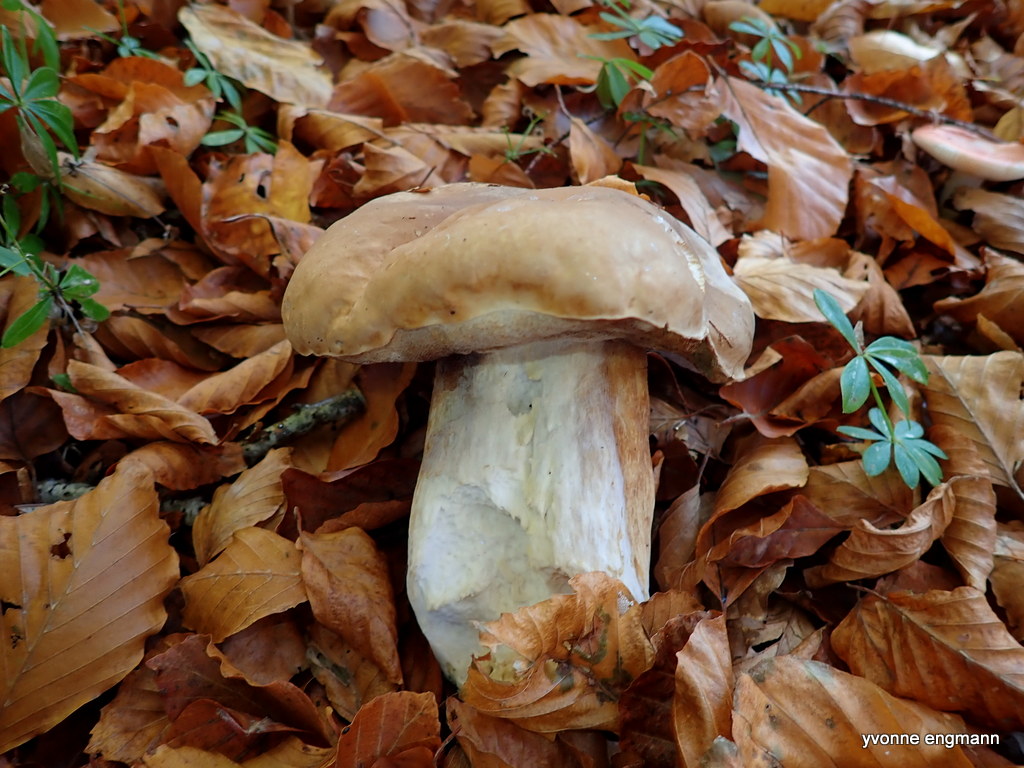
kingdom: Fungi
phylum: Basidiomycota
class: Agaricomycetes
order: Boletales
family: Boletaceae
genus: Boletus
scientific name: Boletus edulis
